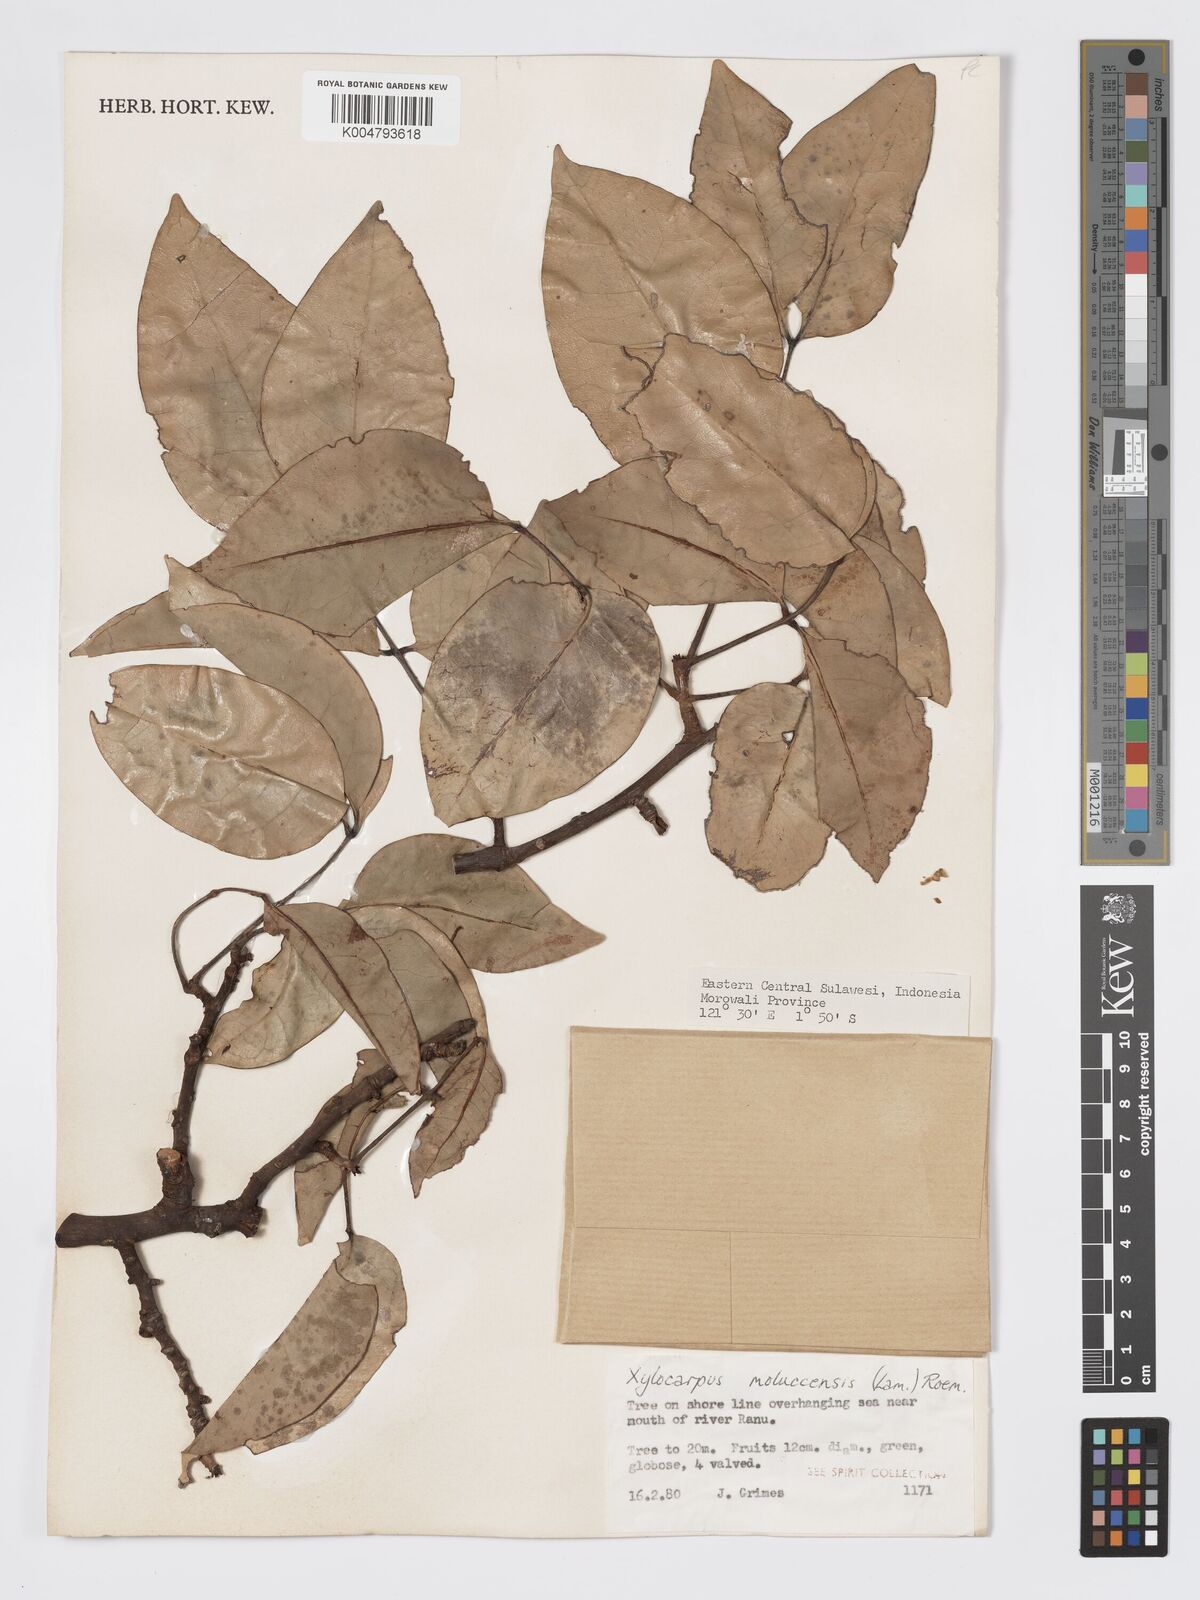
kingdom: Plantae
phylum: Tracheophyta
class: Magnoliopsida
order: Sapindales
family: Meliaceae
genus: Xylocarpus
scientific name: Xylocarpus granatum
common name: Apple mangrove
